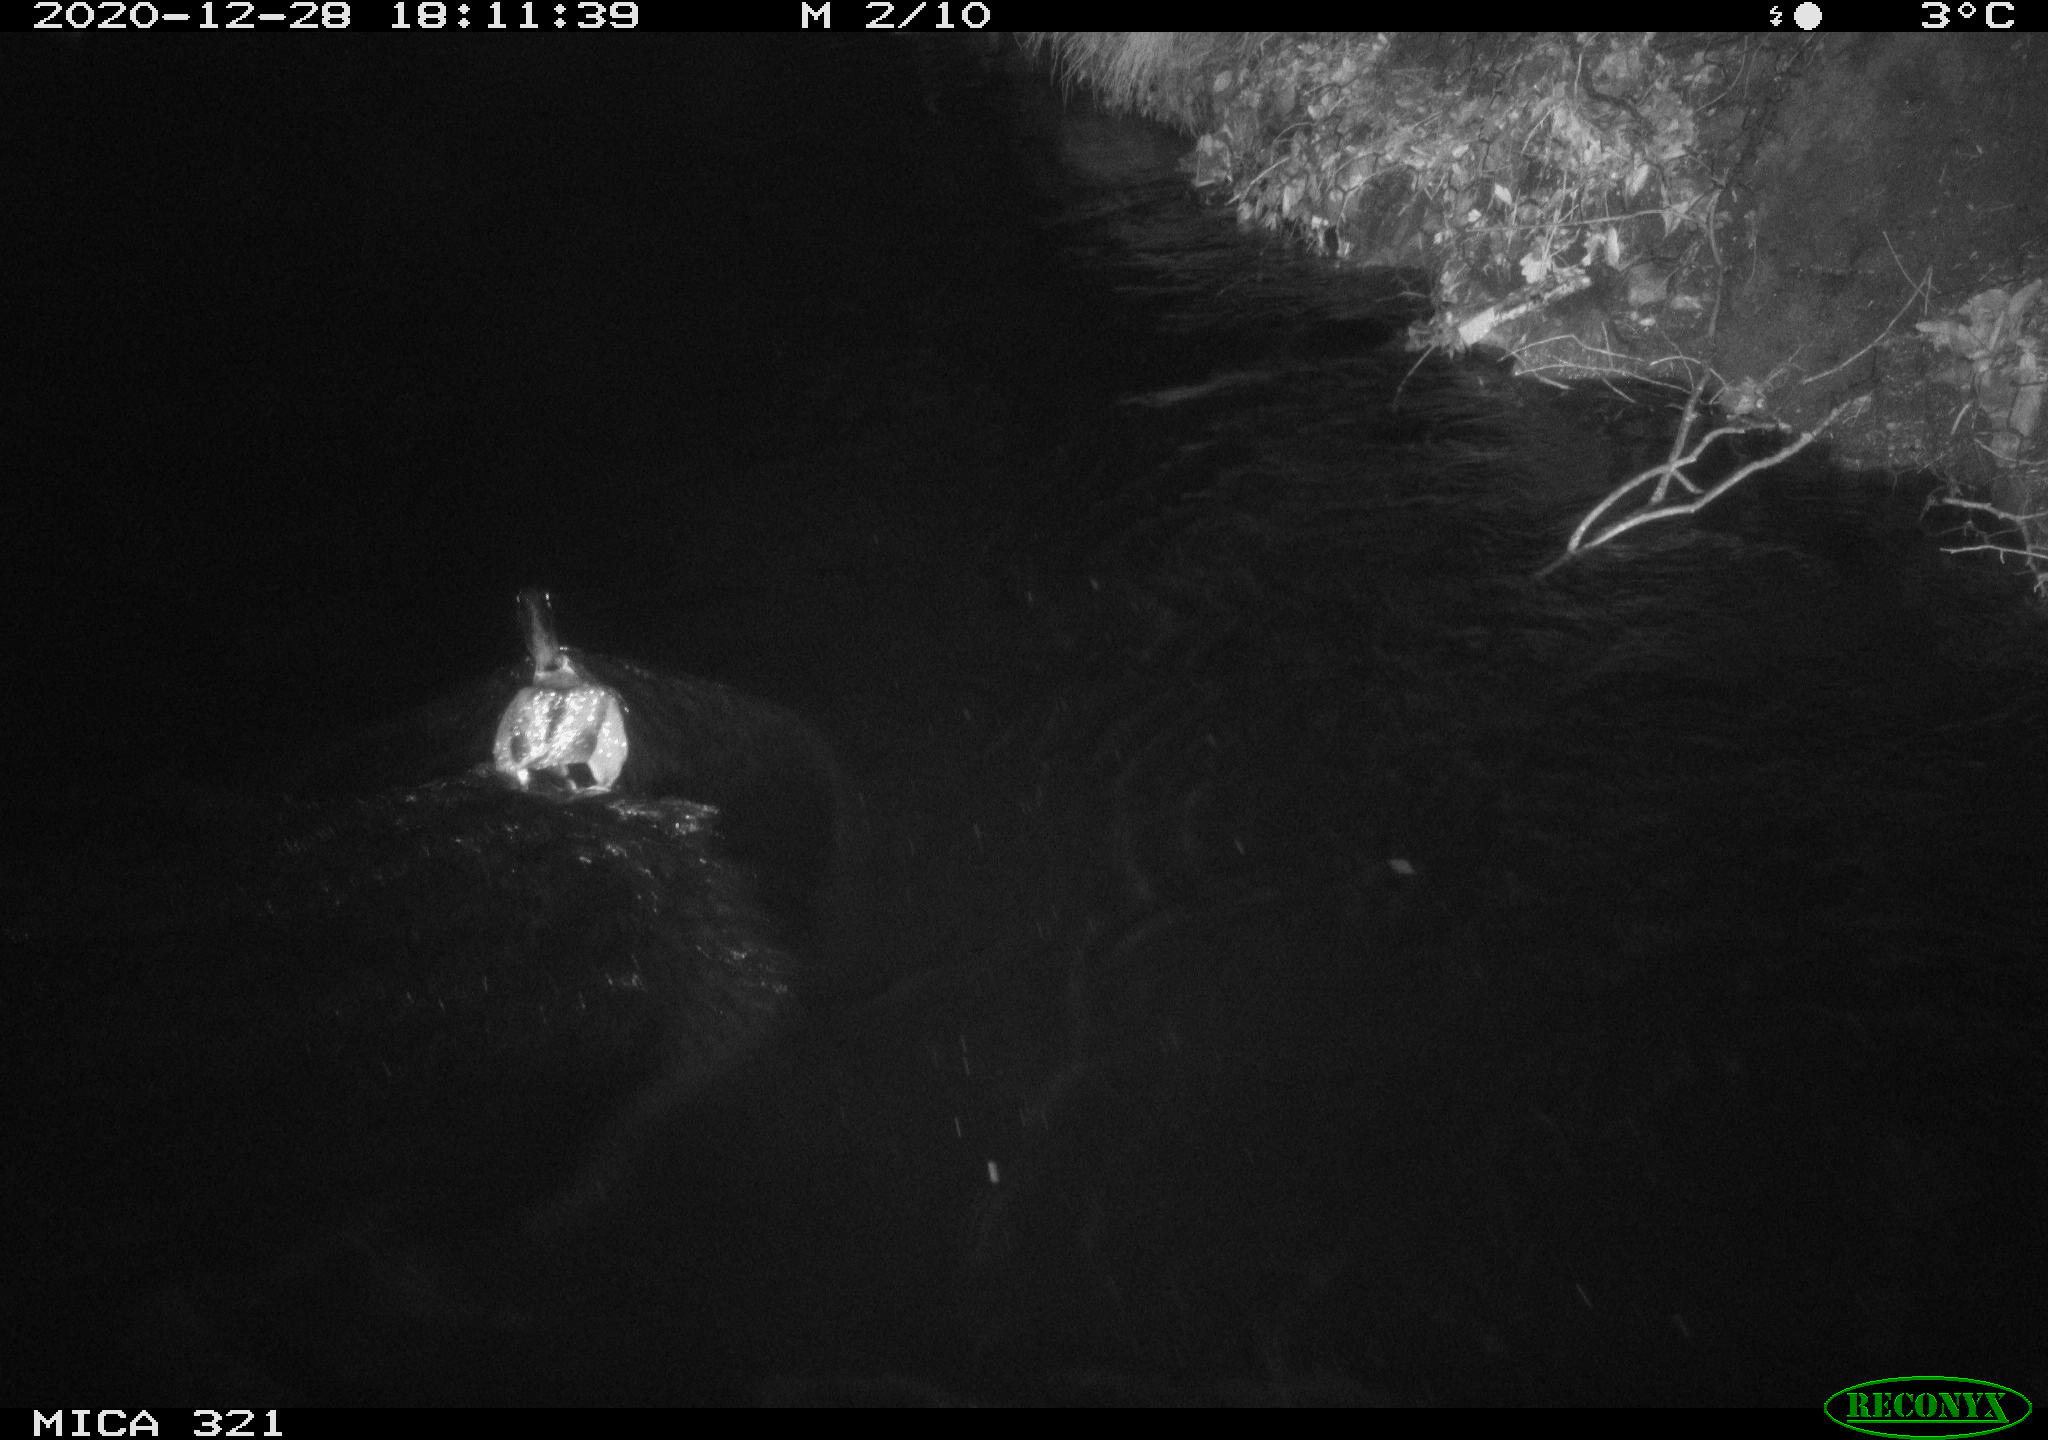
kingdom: Animalia
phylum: Chordata
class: Aves
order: Anseriformes
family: Anatidae
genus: Anas
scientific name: Anas platyrhynchos
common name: Mallard
